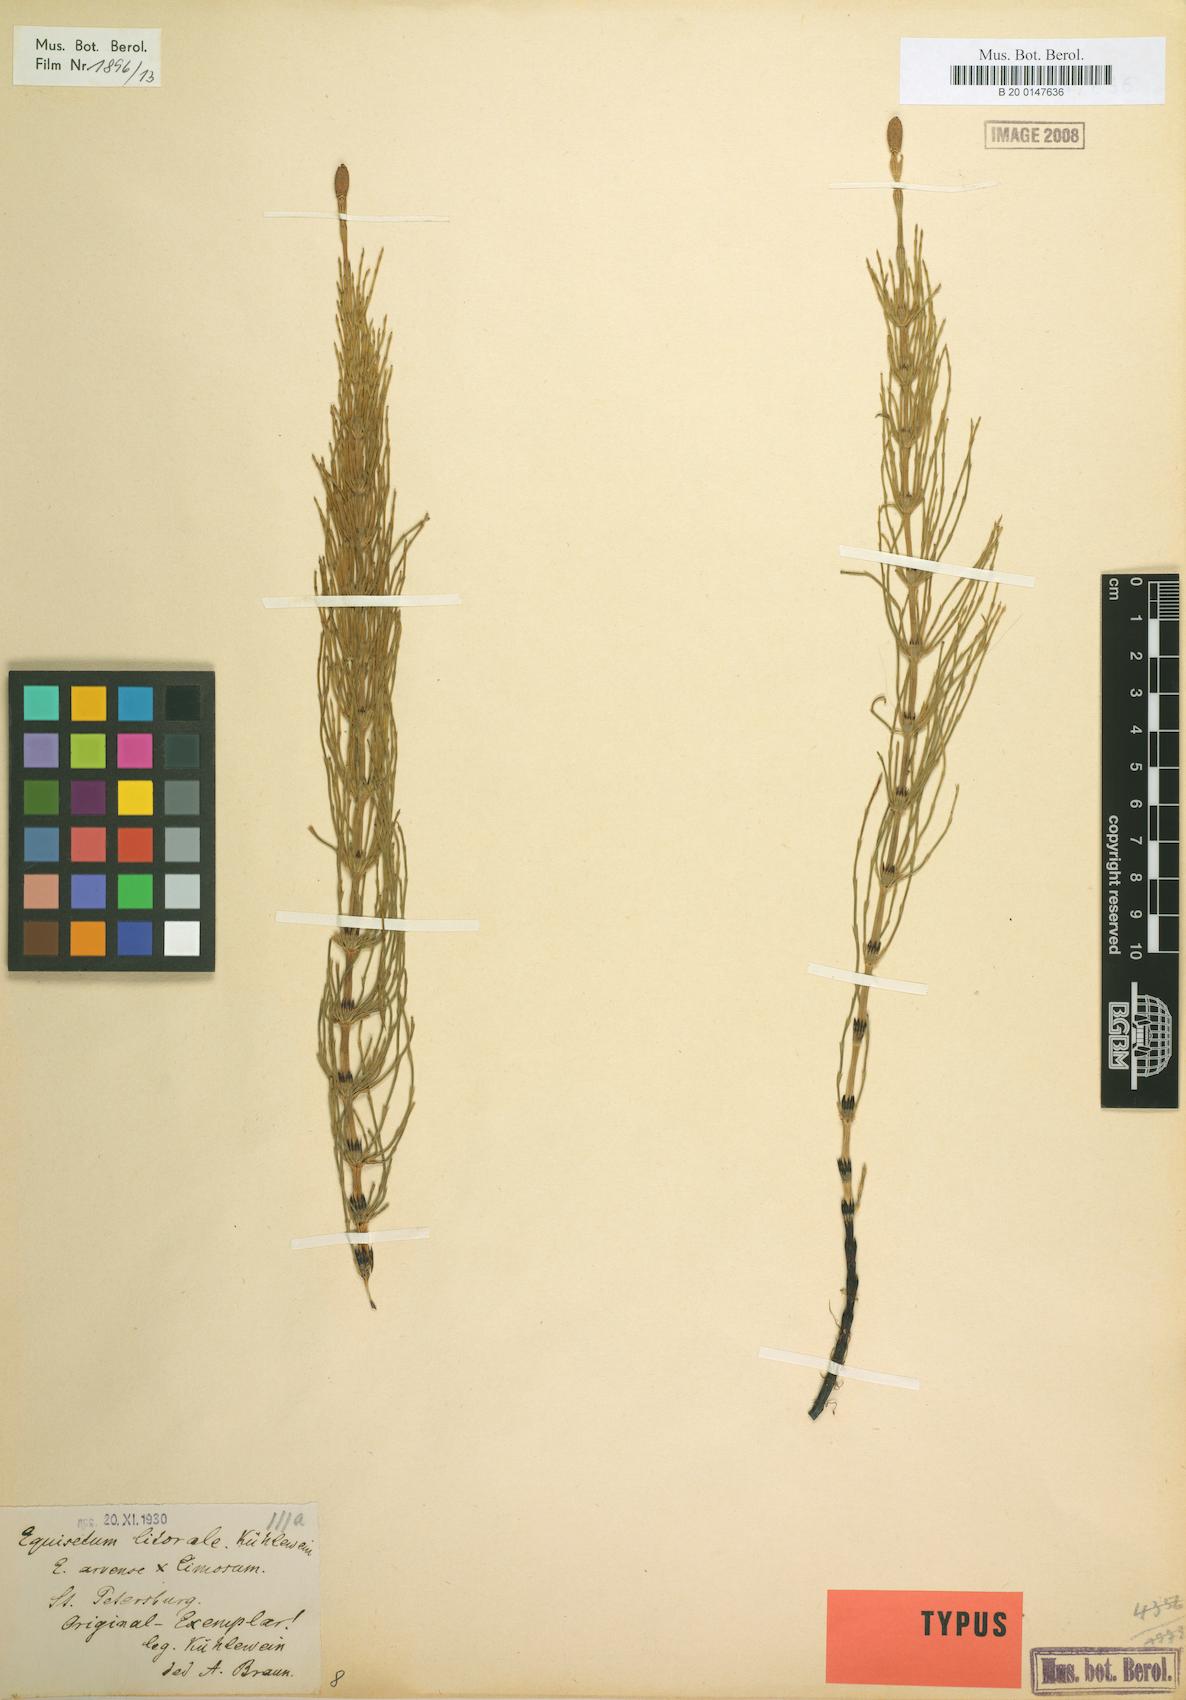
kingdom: Plantae
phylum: Tracheophyta
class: Polypodiopsida
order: Equisetales
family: Equisetaceae
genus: Equisetum
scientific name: Equisetum litorale
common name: Littoral horsetail
